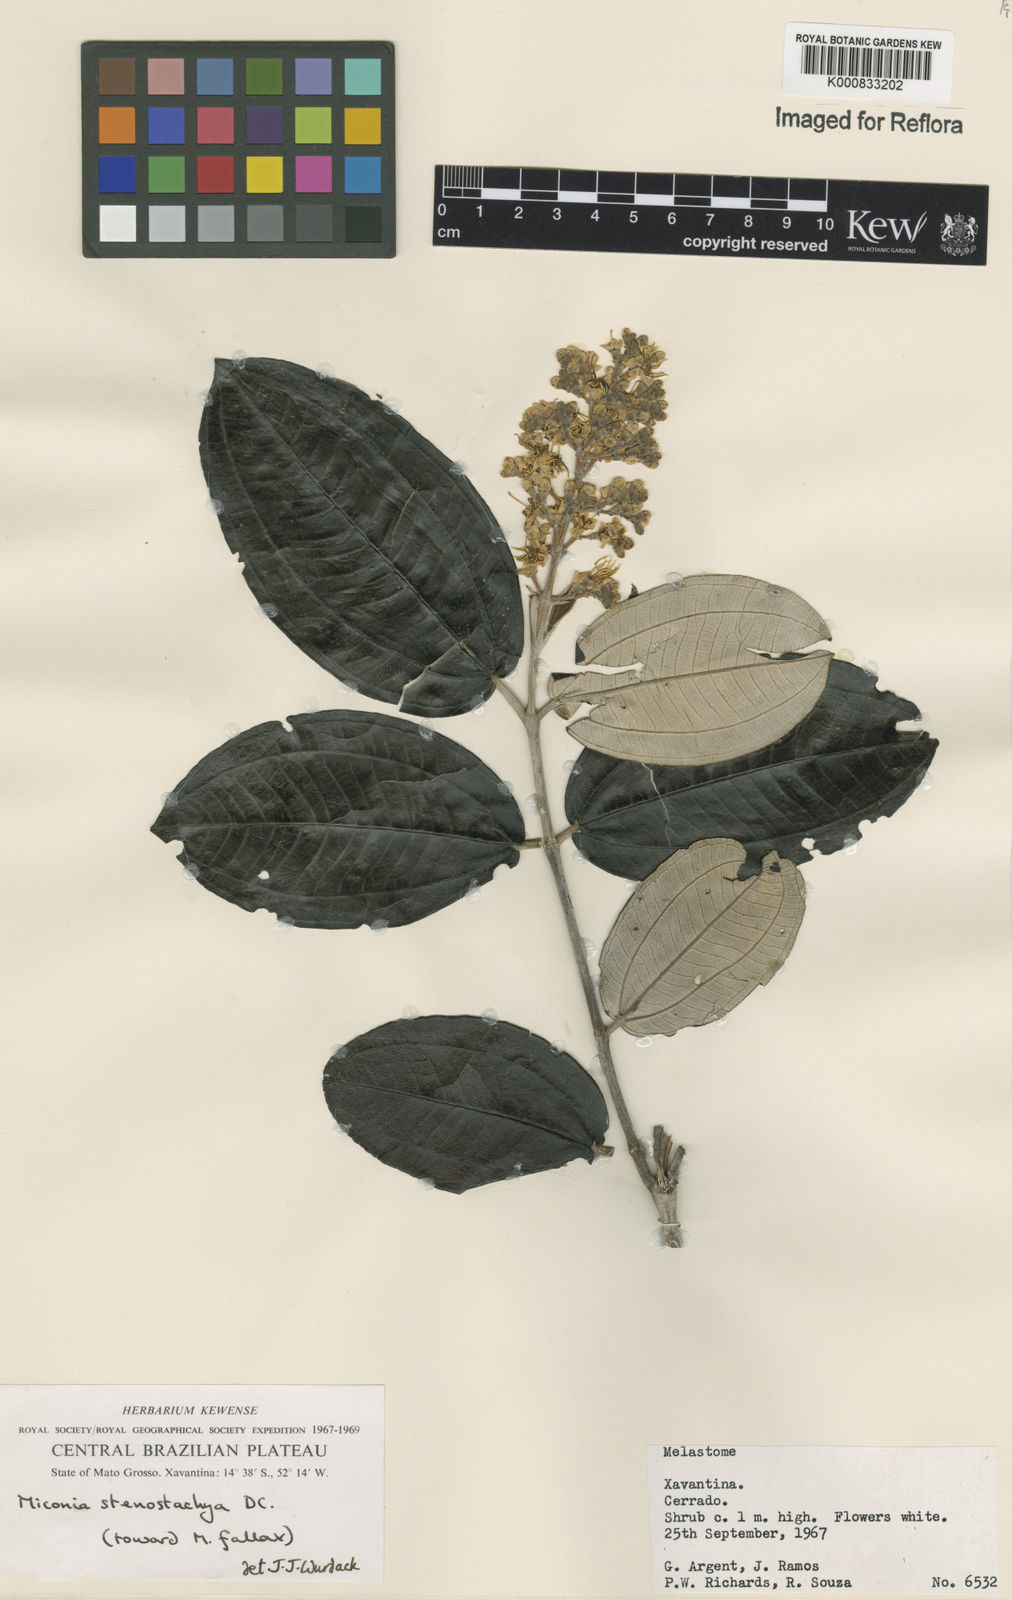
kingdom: Plantae
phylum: Tracheophyta
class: Magnoliopsida
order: Myrtales
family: Melastomataceae
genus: Miconia
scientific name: Miconia stenostachya
